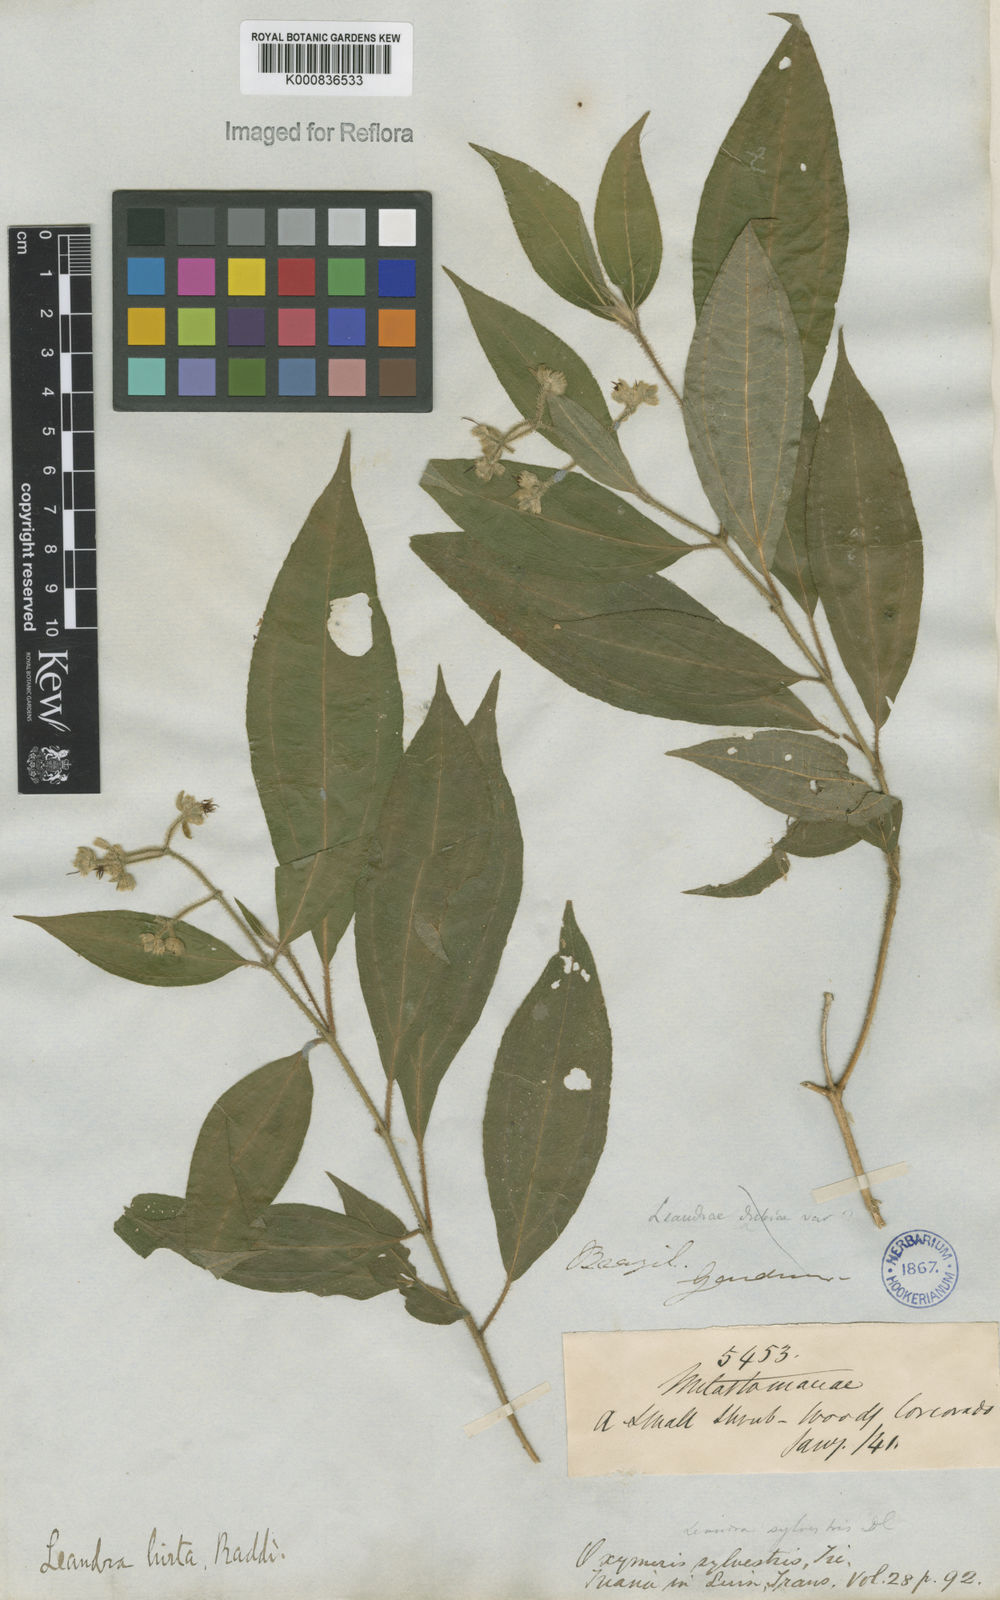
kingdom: Plantae
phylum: Tracheophyta
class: Magnoliopsida
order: Myrtales
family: Melastomataceae
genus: Miconia
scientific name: Miconia dubia
